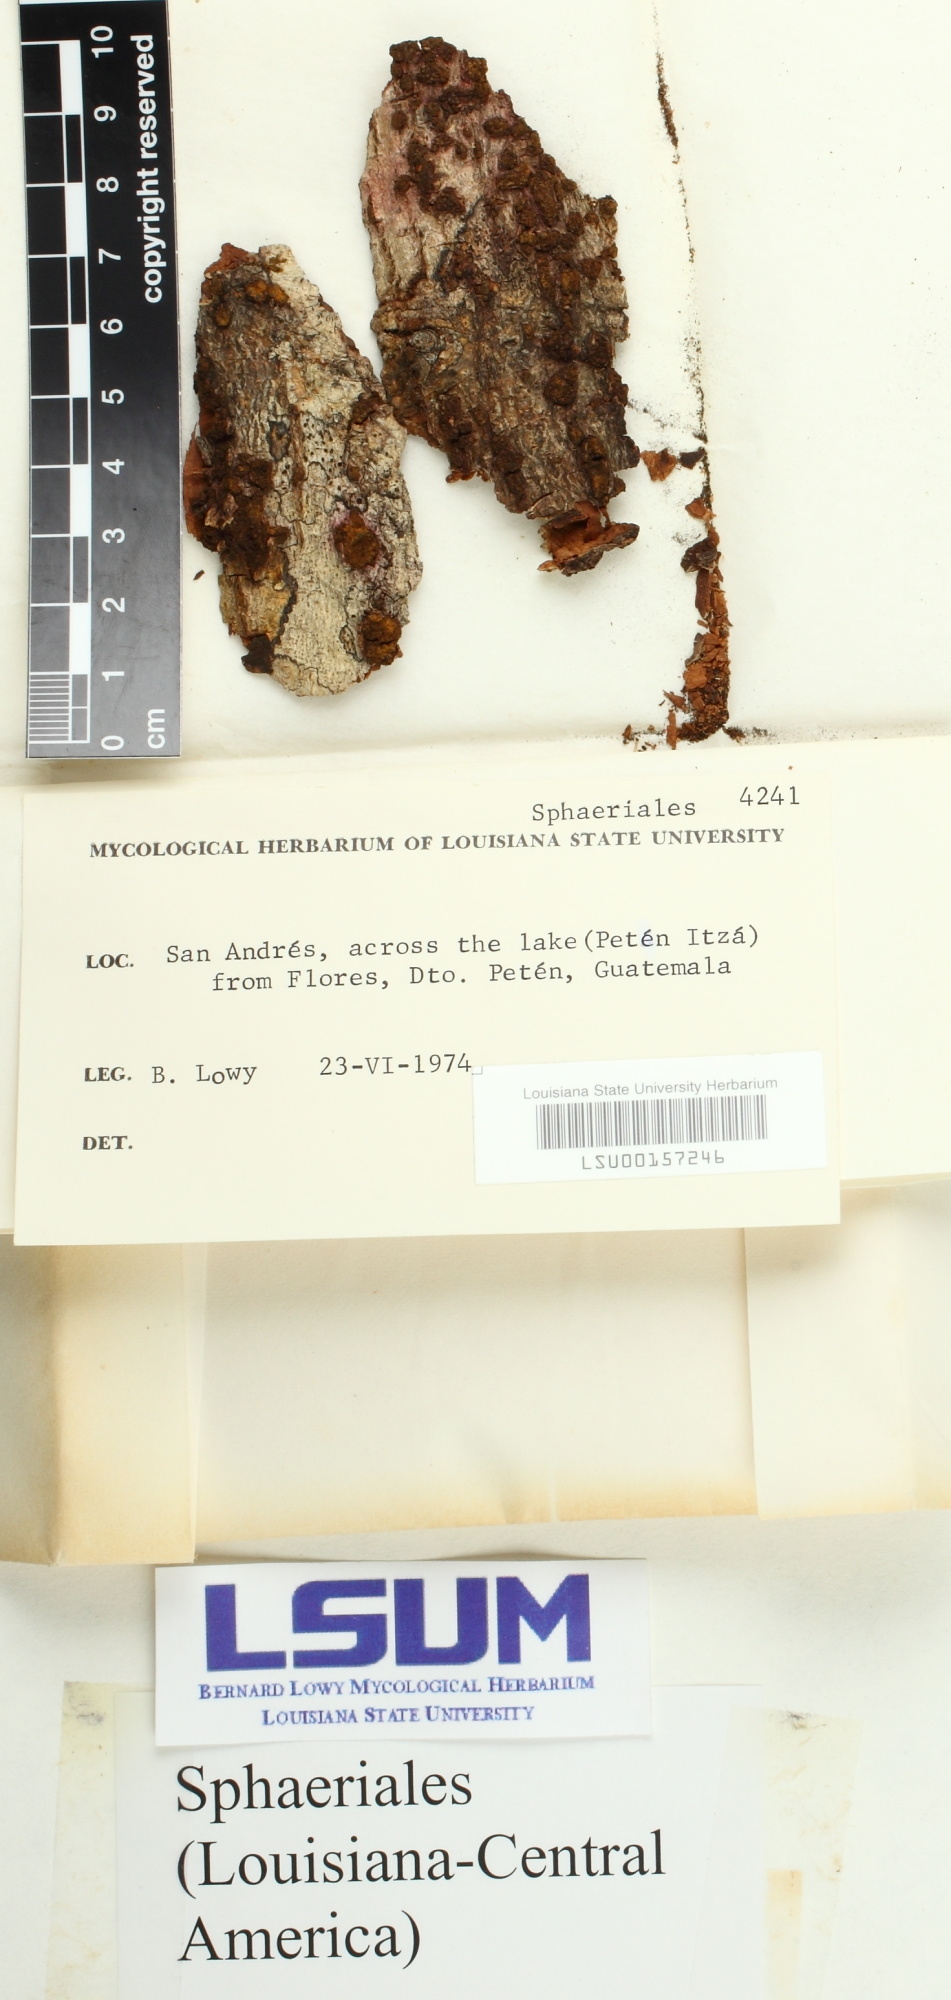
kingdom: Fungi
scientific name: Fungi
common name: Fungi
